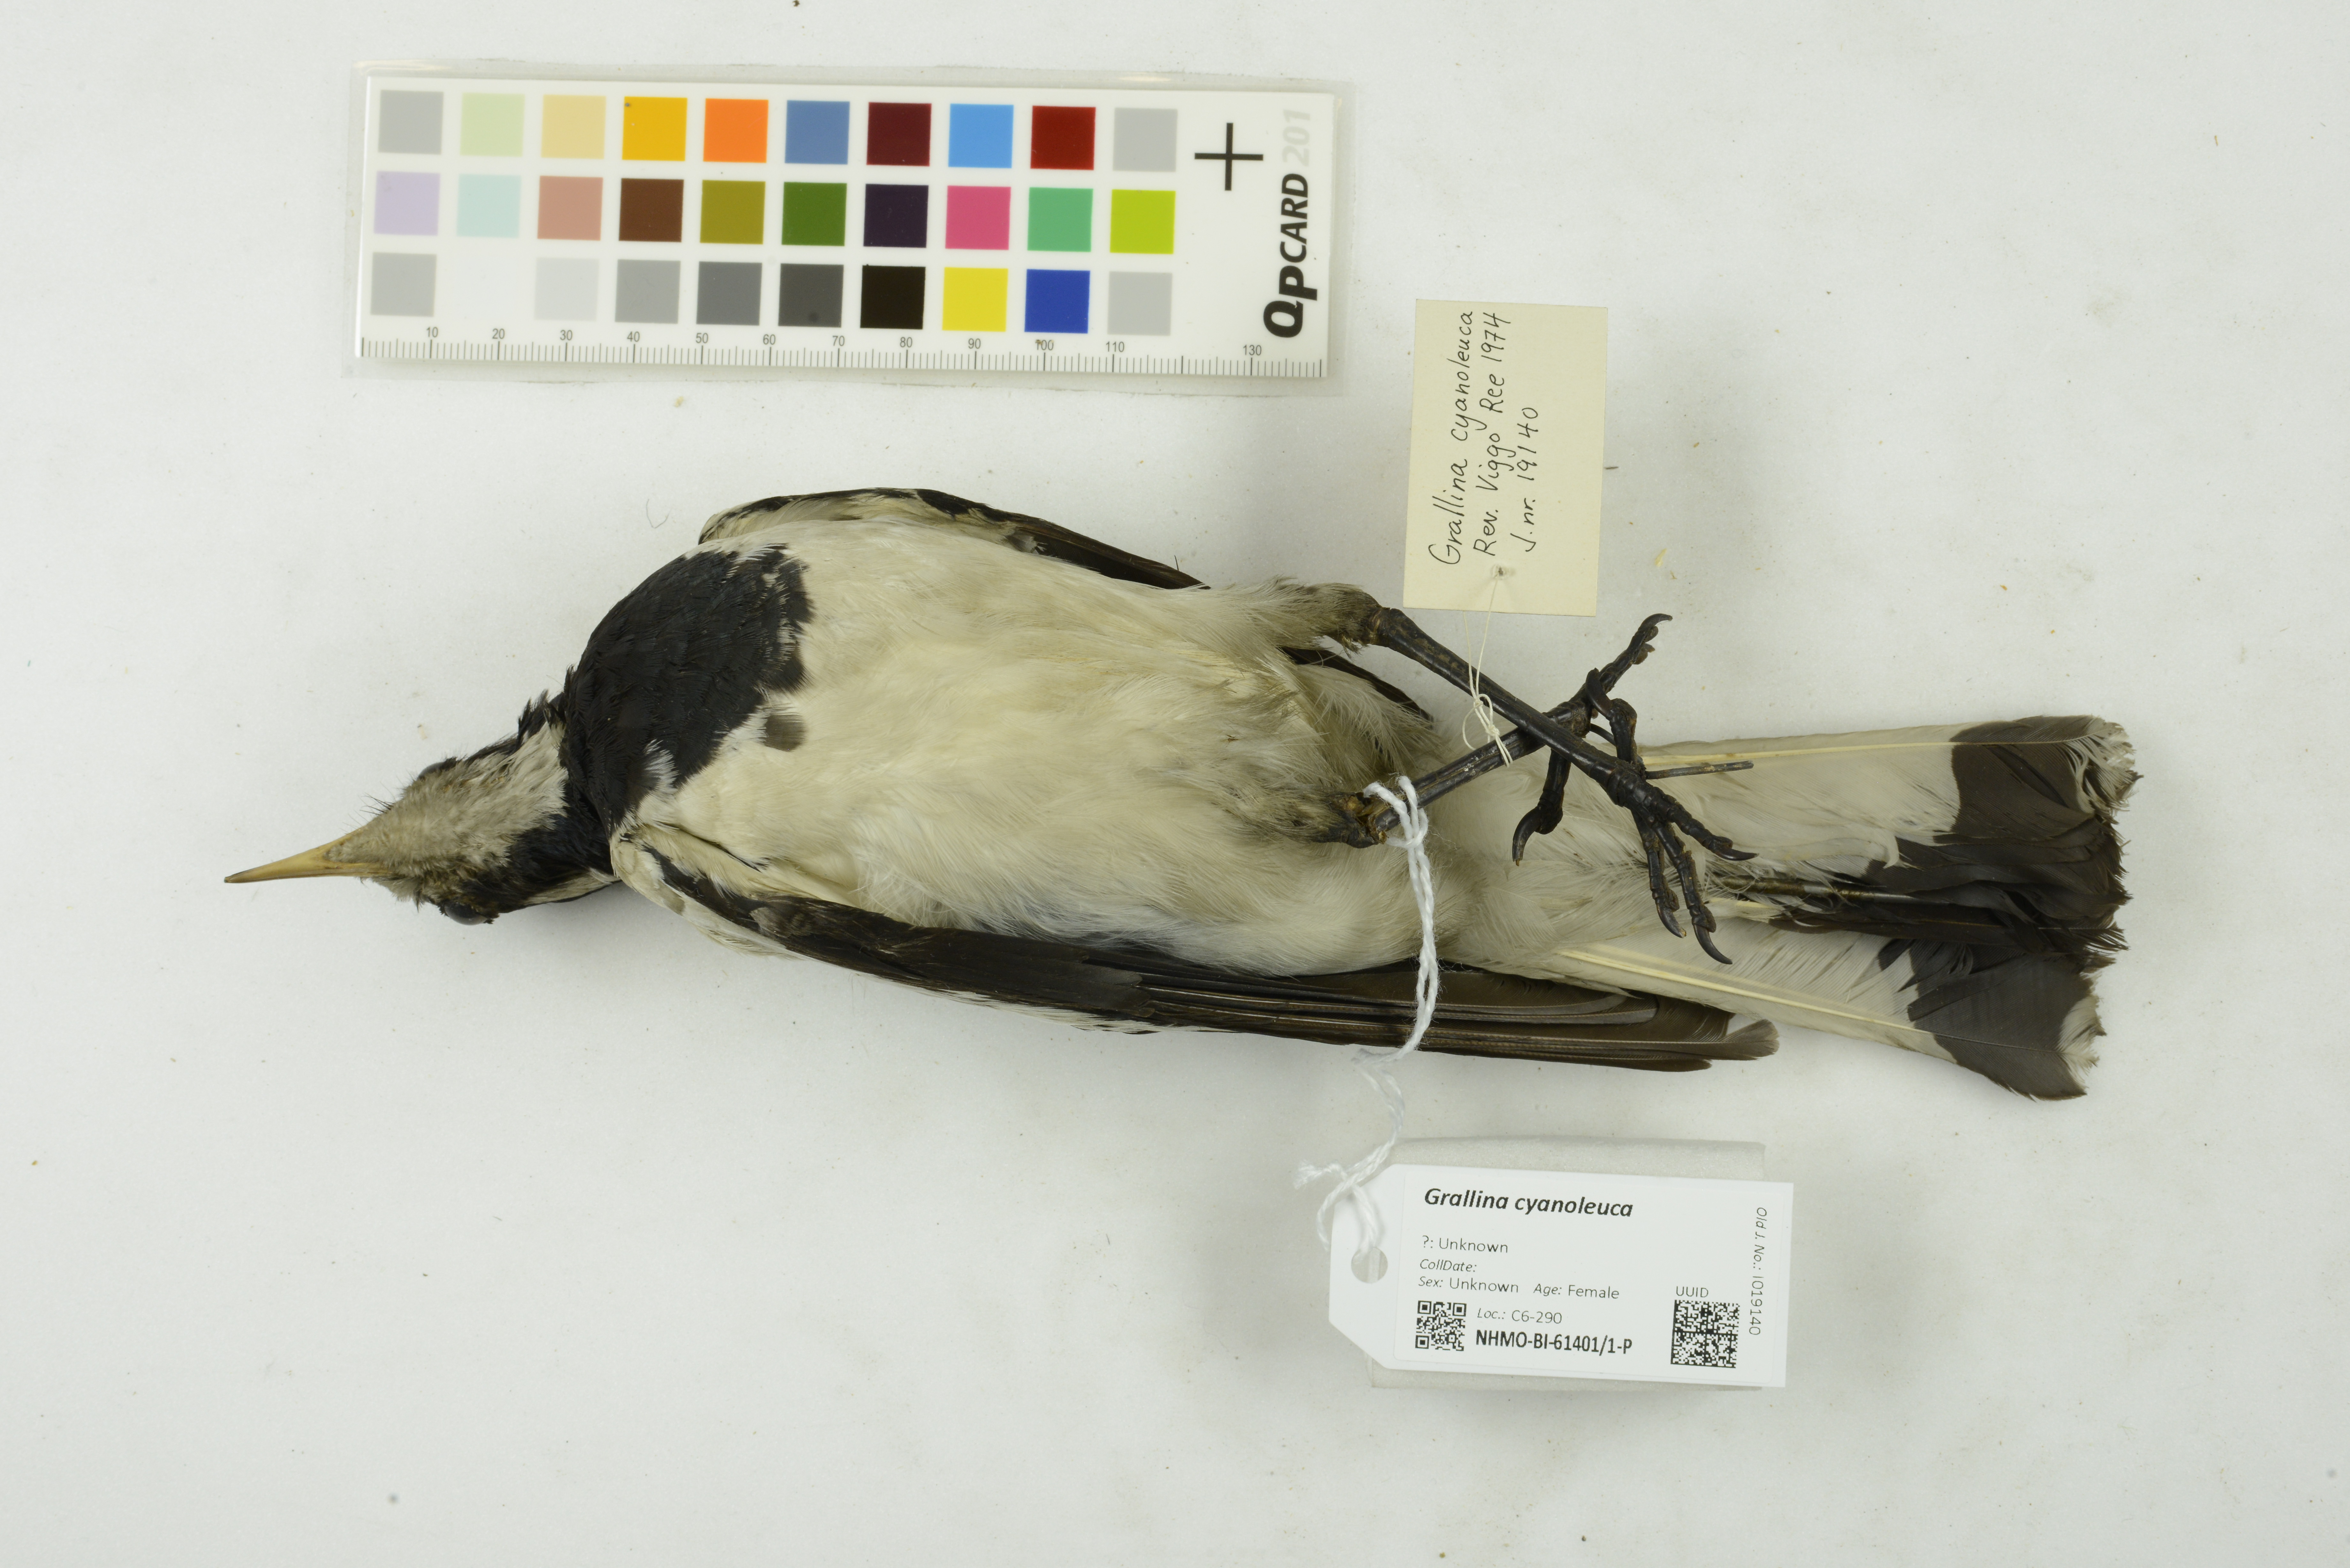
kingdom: Animalia
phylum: Chordata
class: Aves
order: Passeriformes
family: Monarchidae
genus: Grallina
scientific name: Grallina cyanoleuca
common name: Magpie-lark
